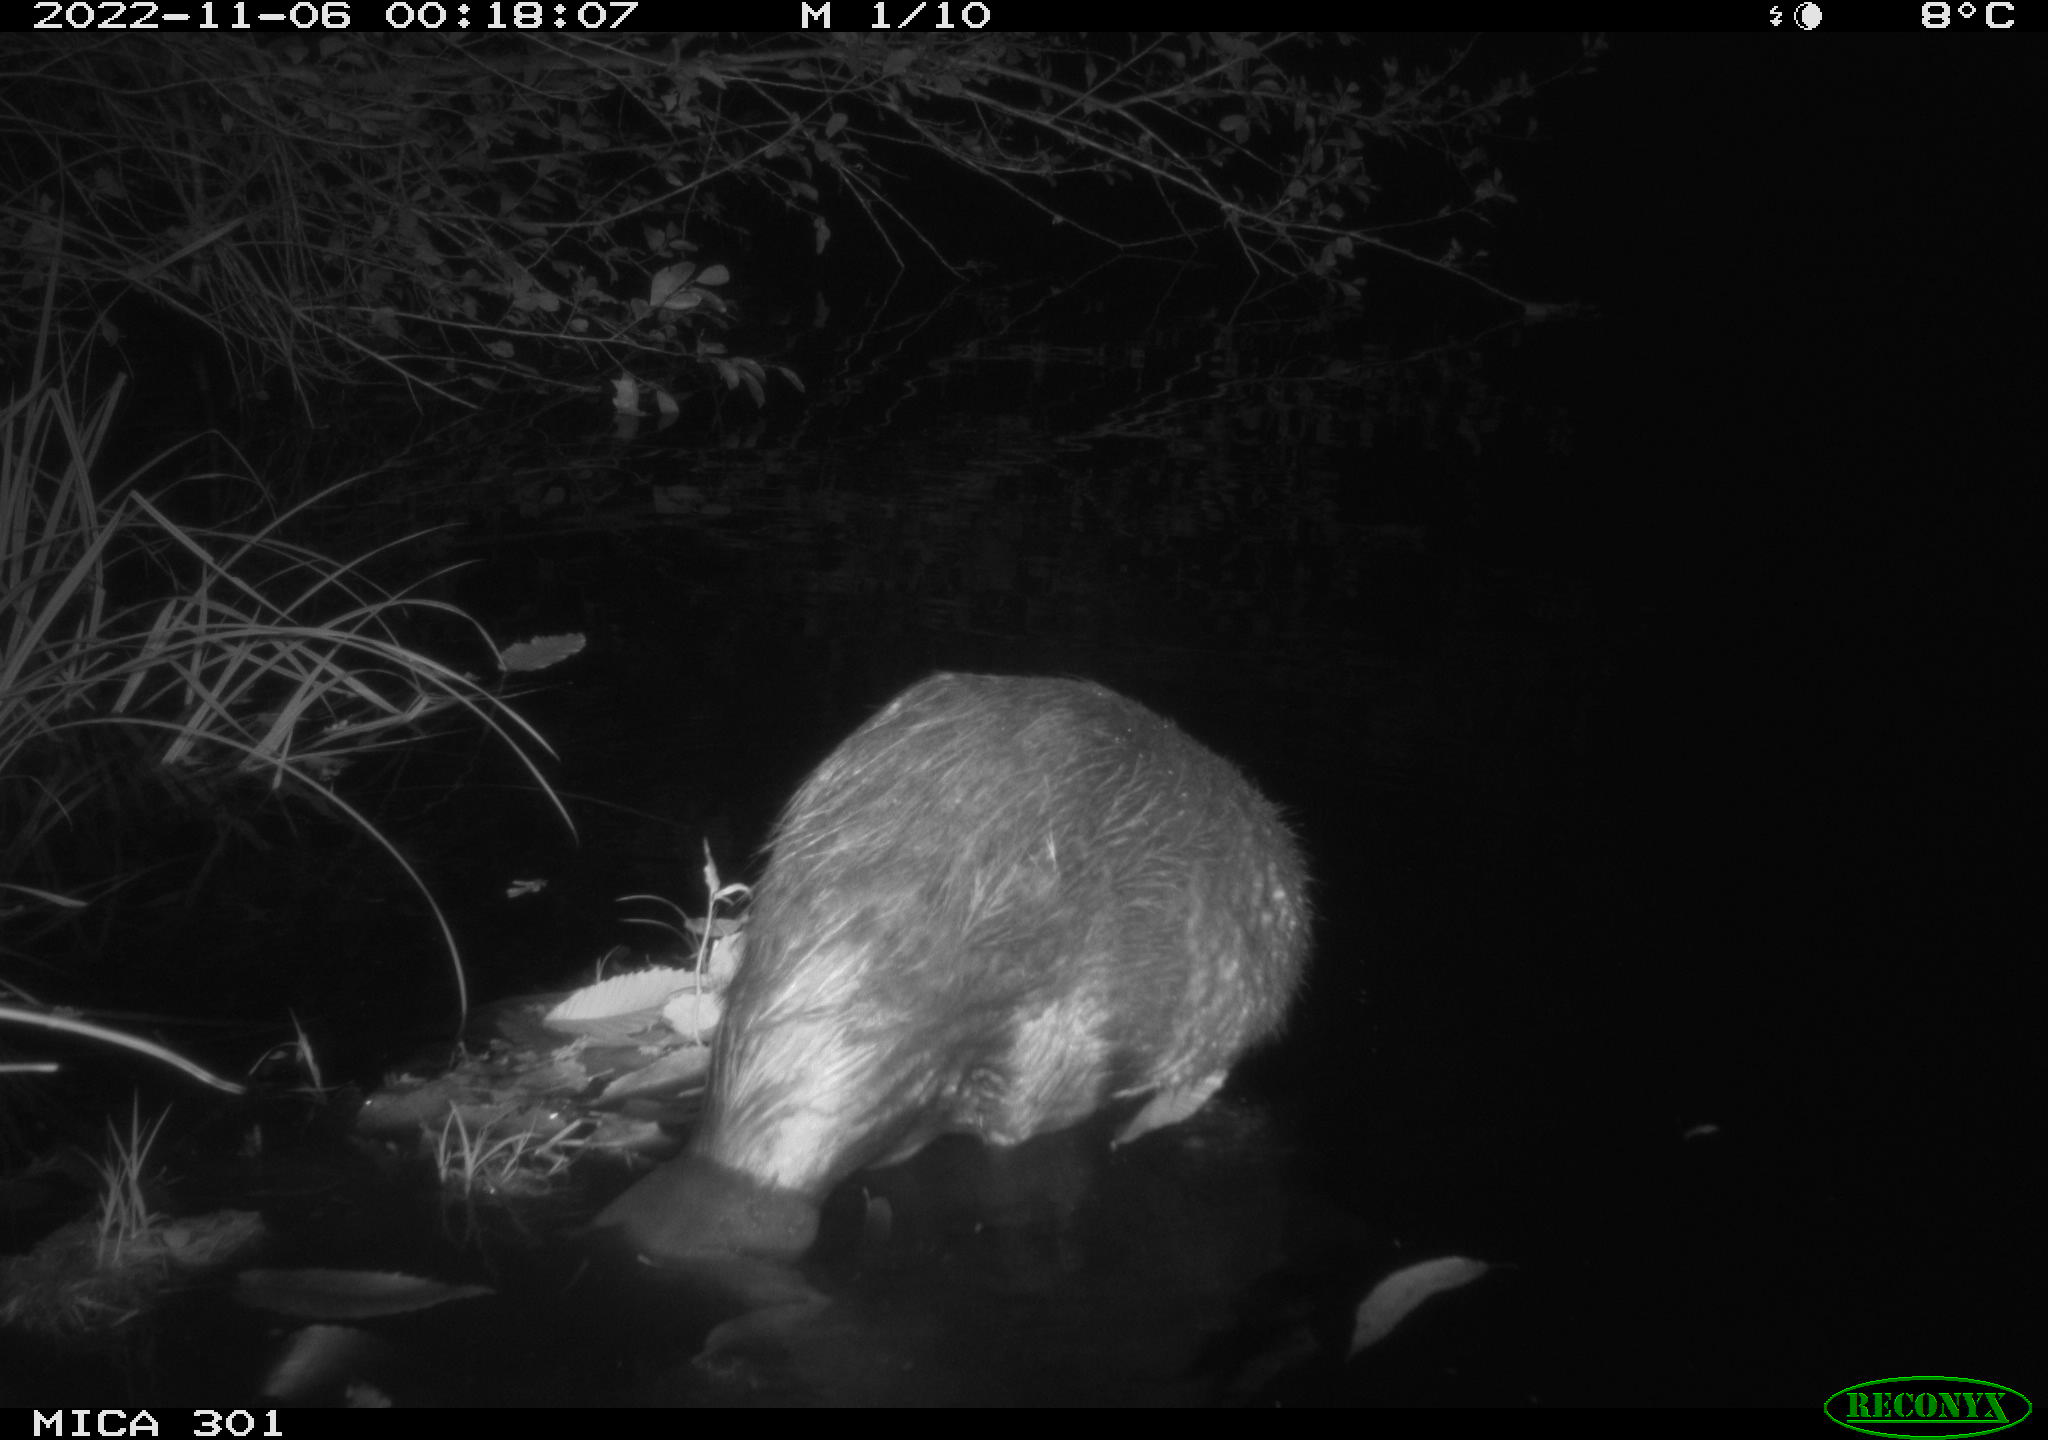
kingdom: Animalia
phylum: Chordata
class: Mammalia
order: Rodentia
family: Castoridae
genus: Castor
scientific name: Castor fiber
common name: Eurasian beaver
